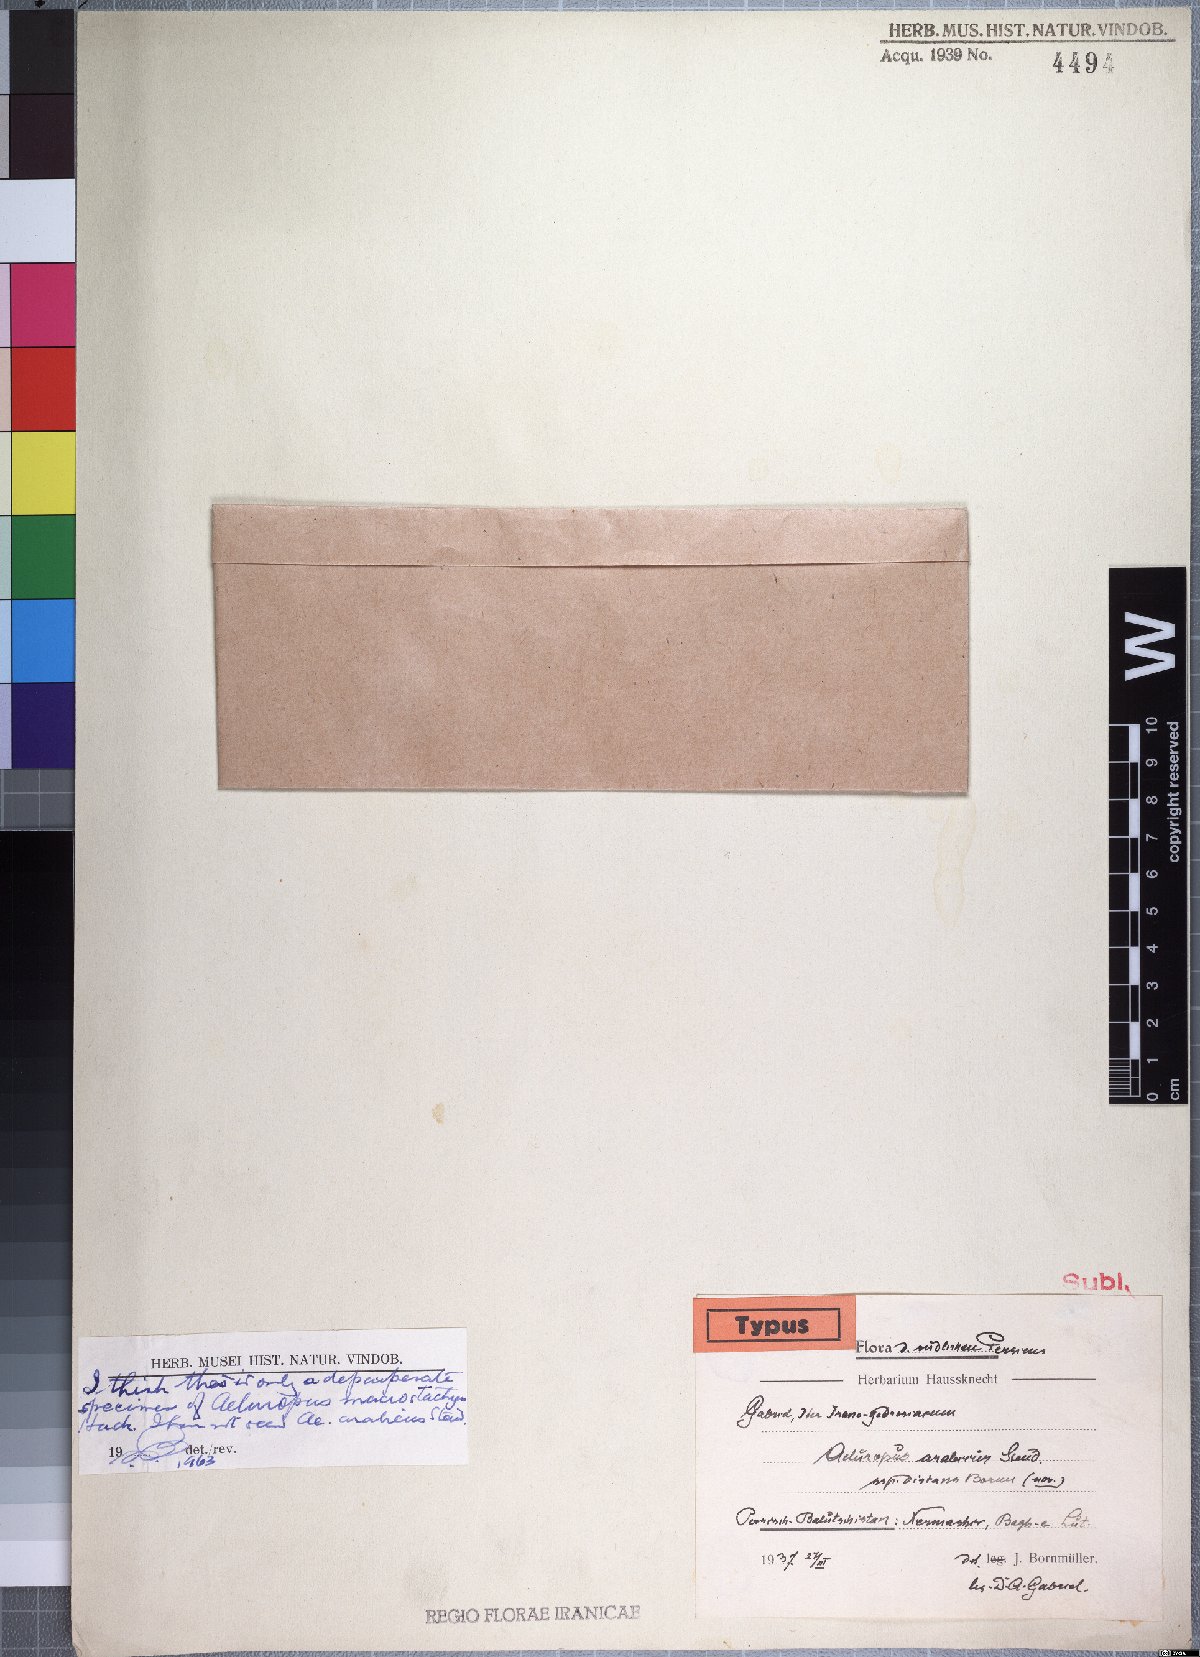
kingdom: Plantae
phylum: Tracheophyta
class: Liliopsida
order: Poales
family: Poaceae
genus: Aeluropus
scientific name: Aeluropus macrostachyus
